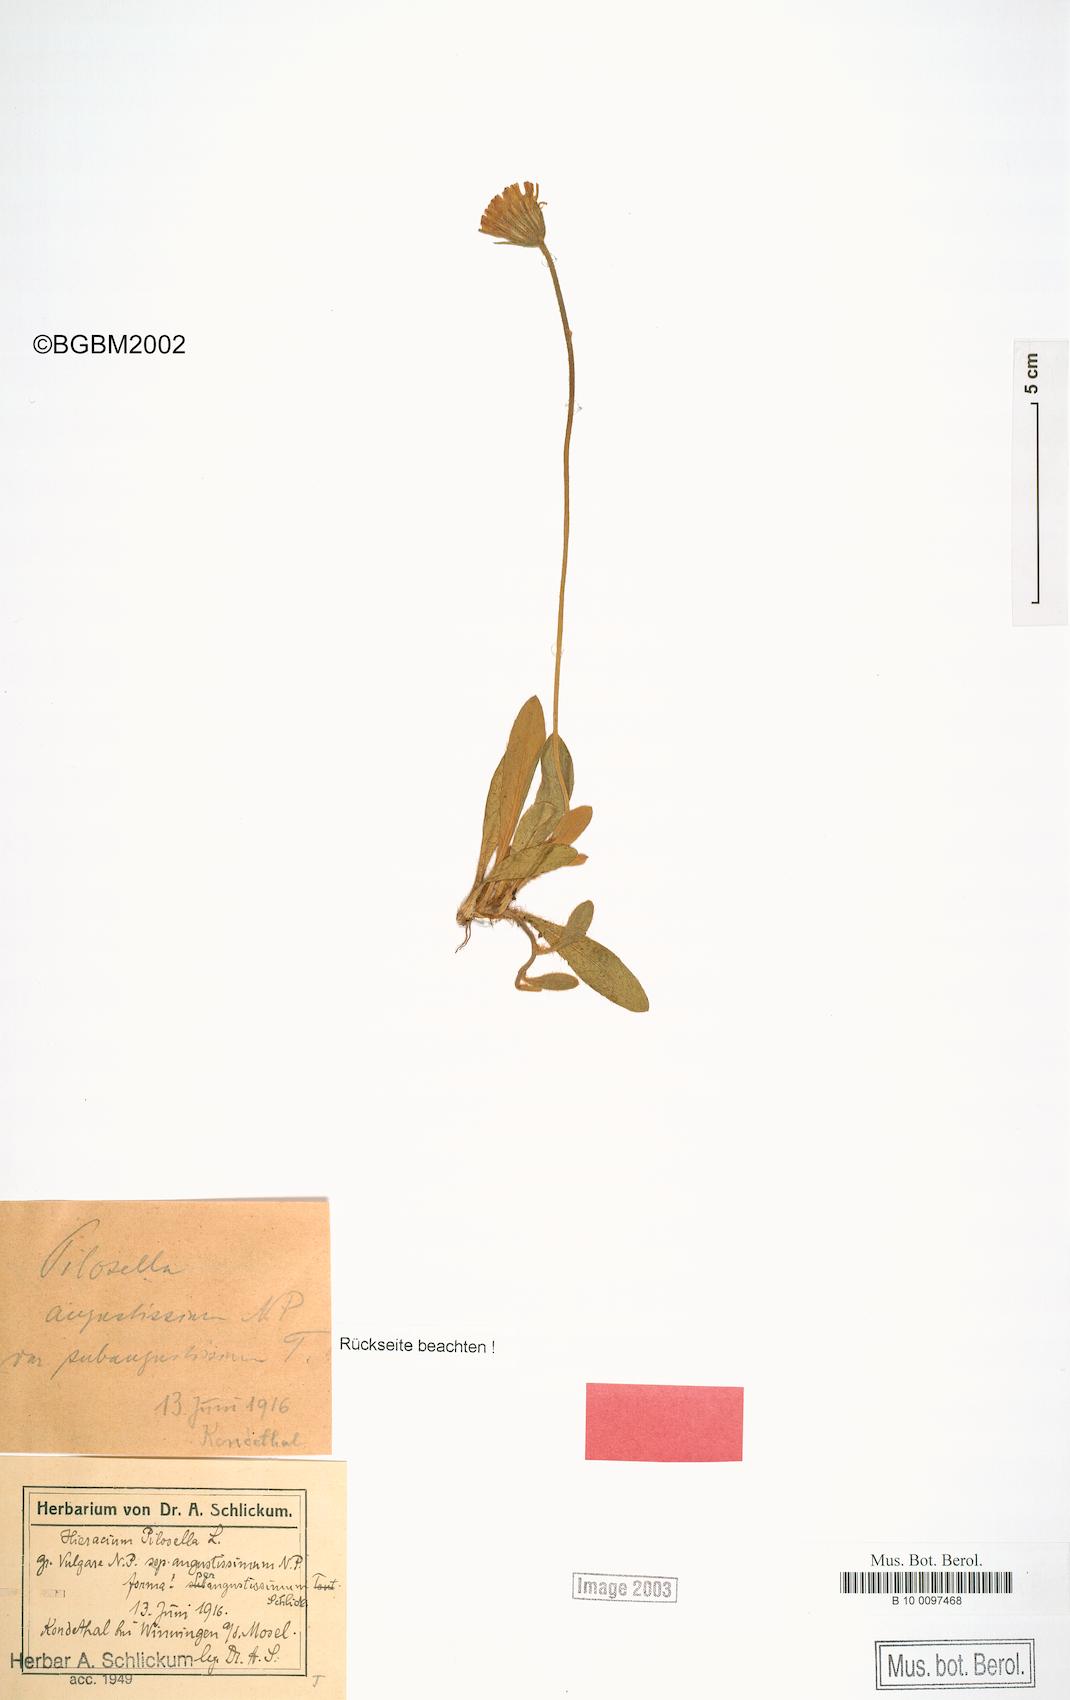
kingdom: Plantae
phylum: Tracheophyta
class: Magnoliopsida
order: Asterales
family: Asteraceae
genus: Pilosella
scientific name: Pilosella officinarum
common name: Mouse-ear hawkweed
